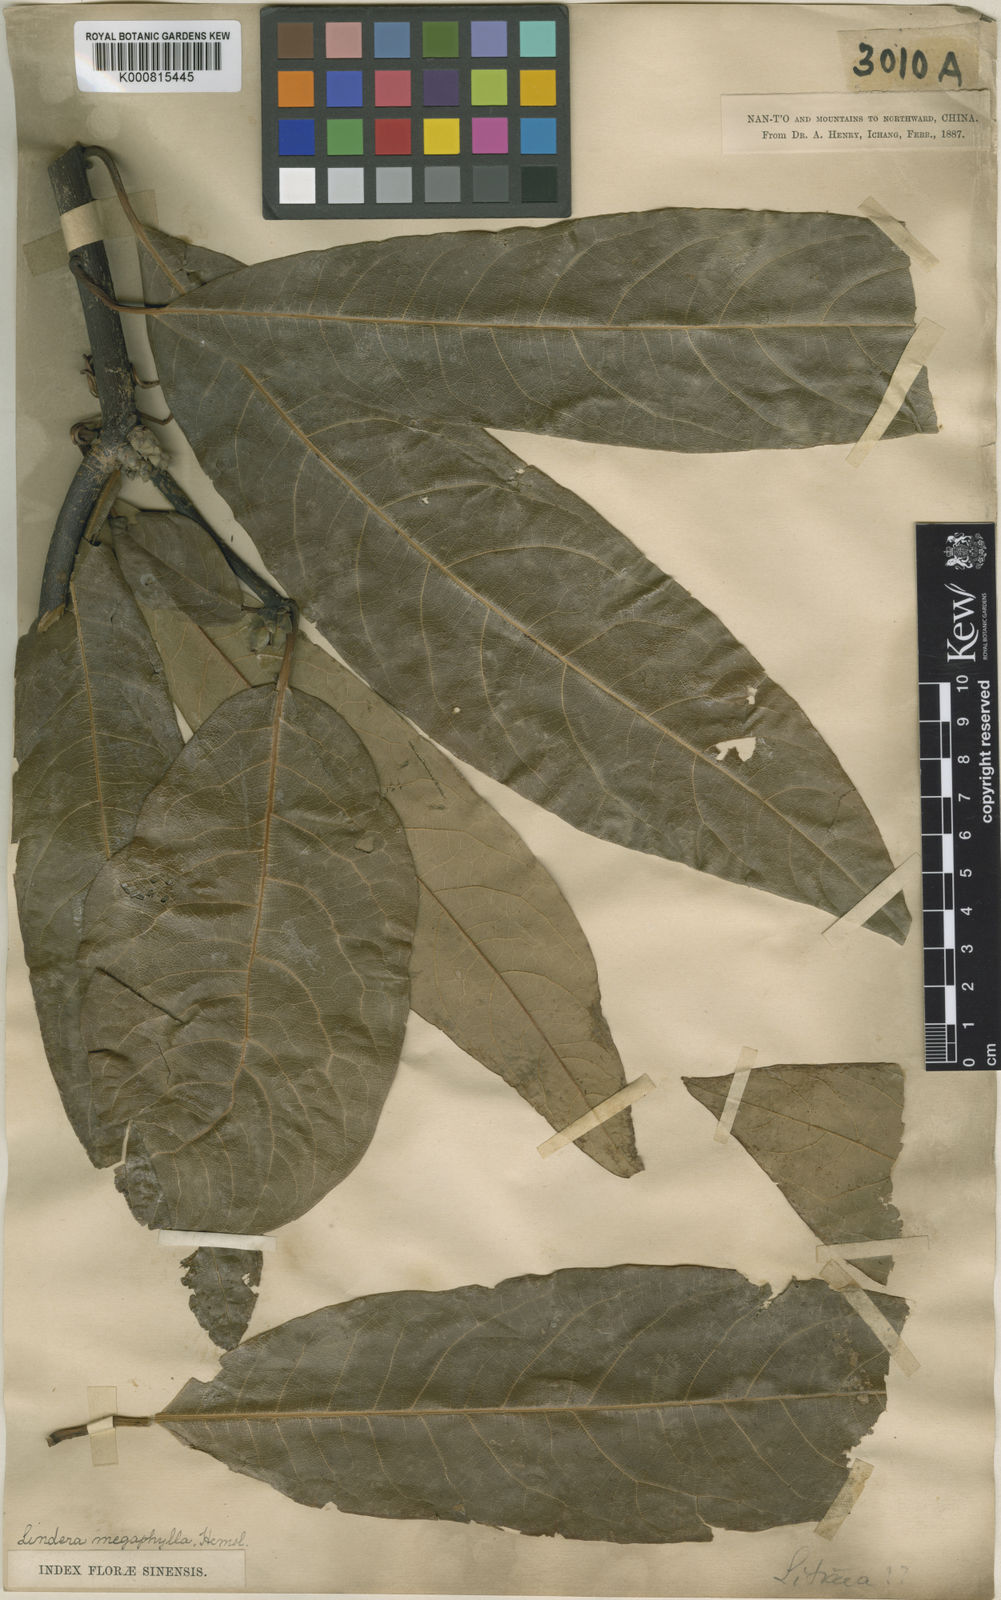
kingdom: Plantae
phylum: Tracheophyta
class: Magnoliopsida
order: Laurales
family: Lauraceae
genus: Lindera
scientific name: Lindera megaphylla
